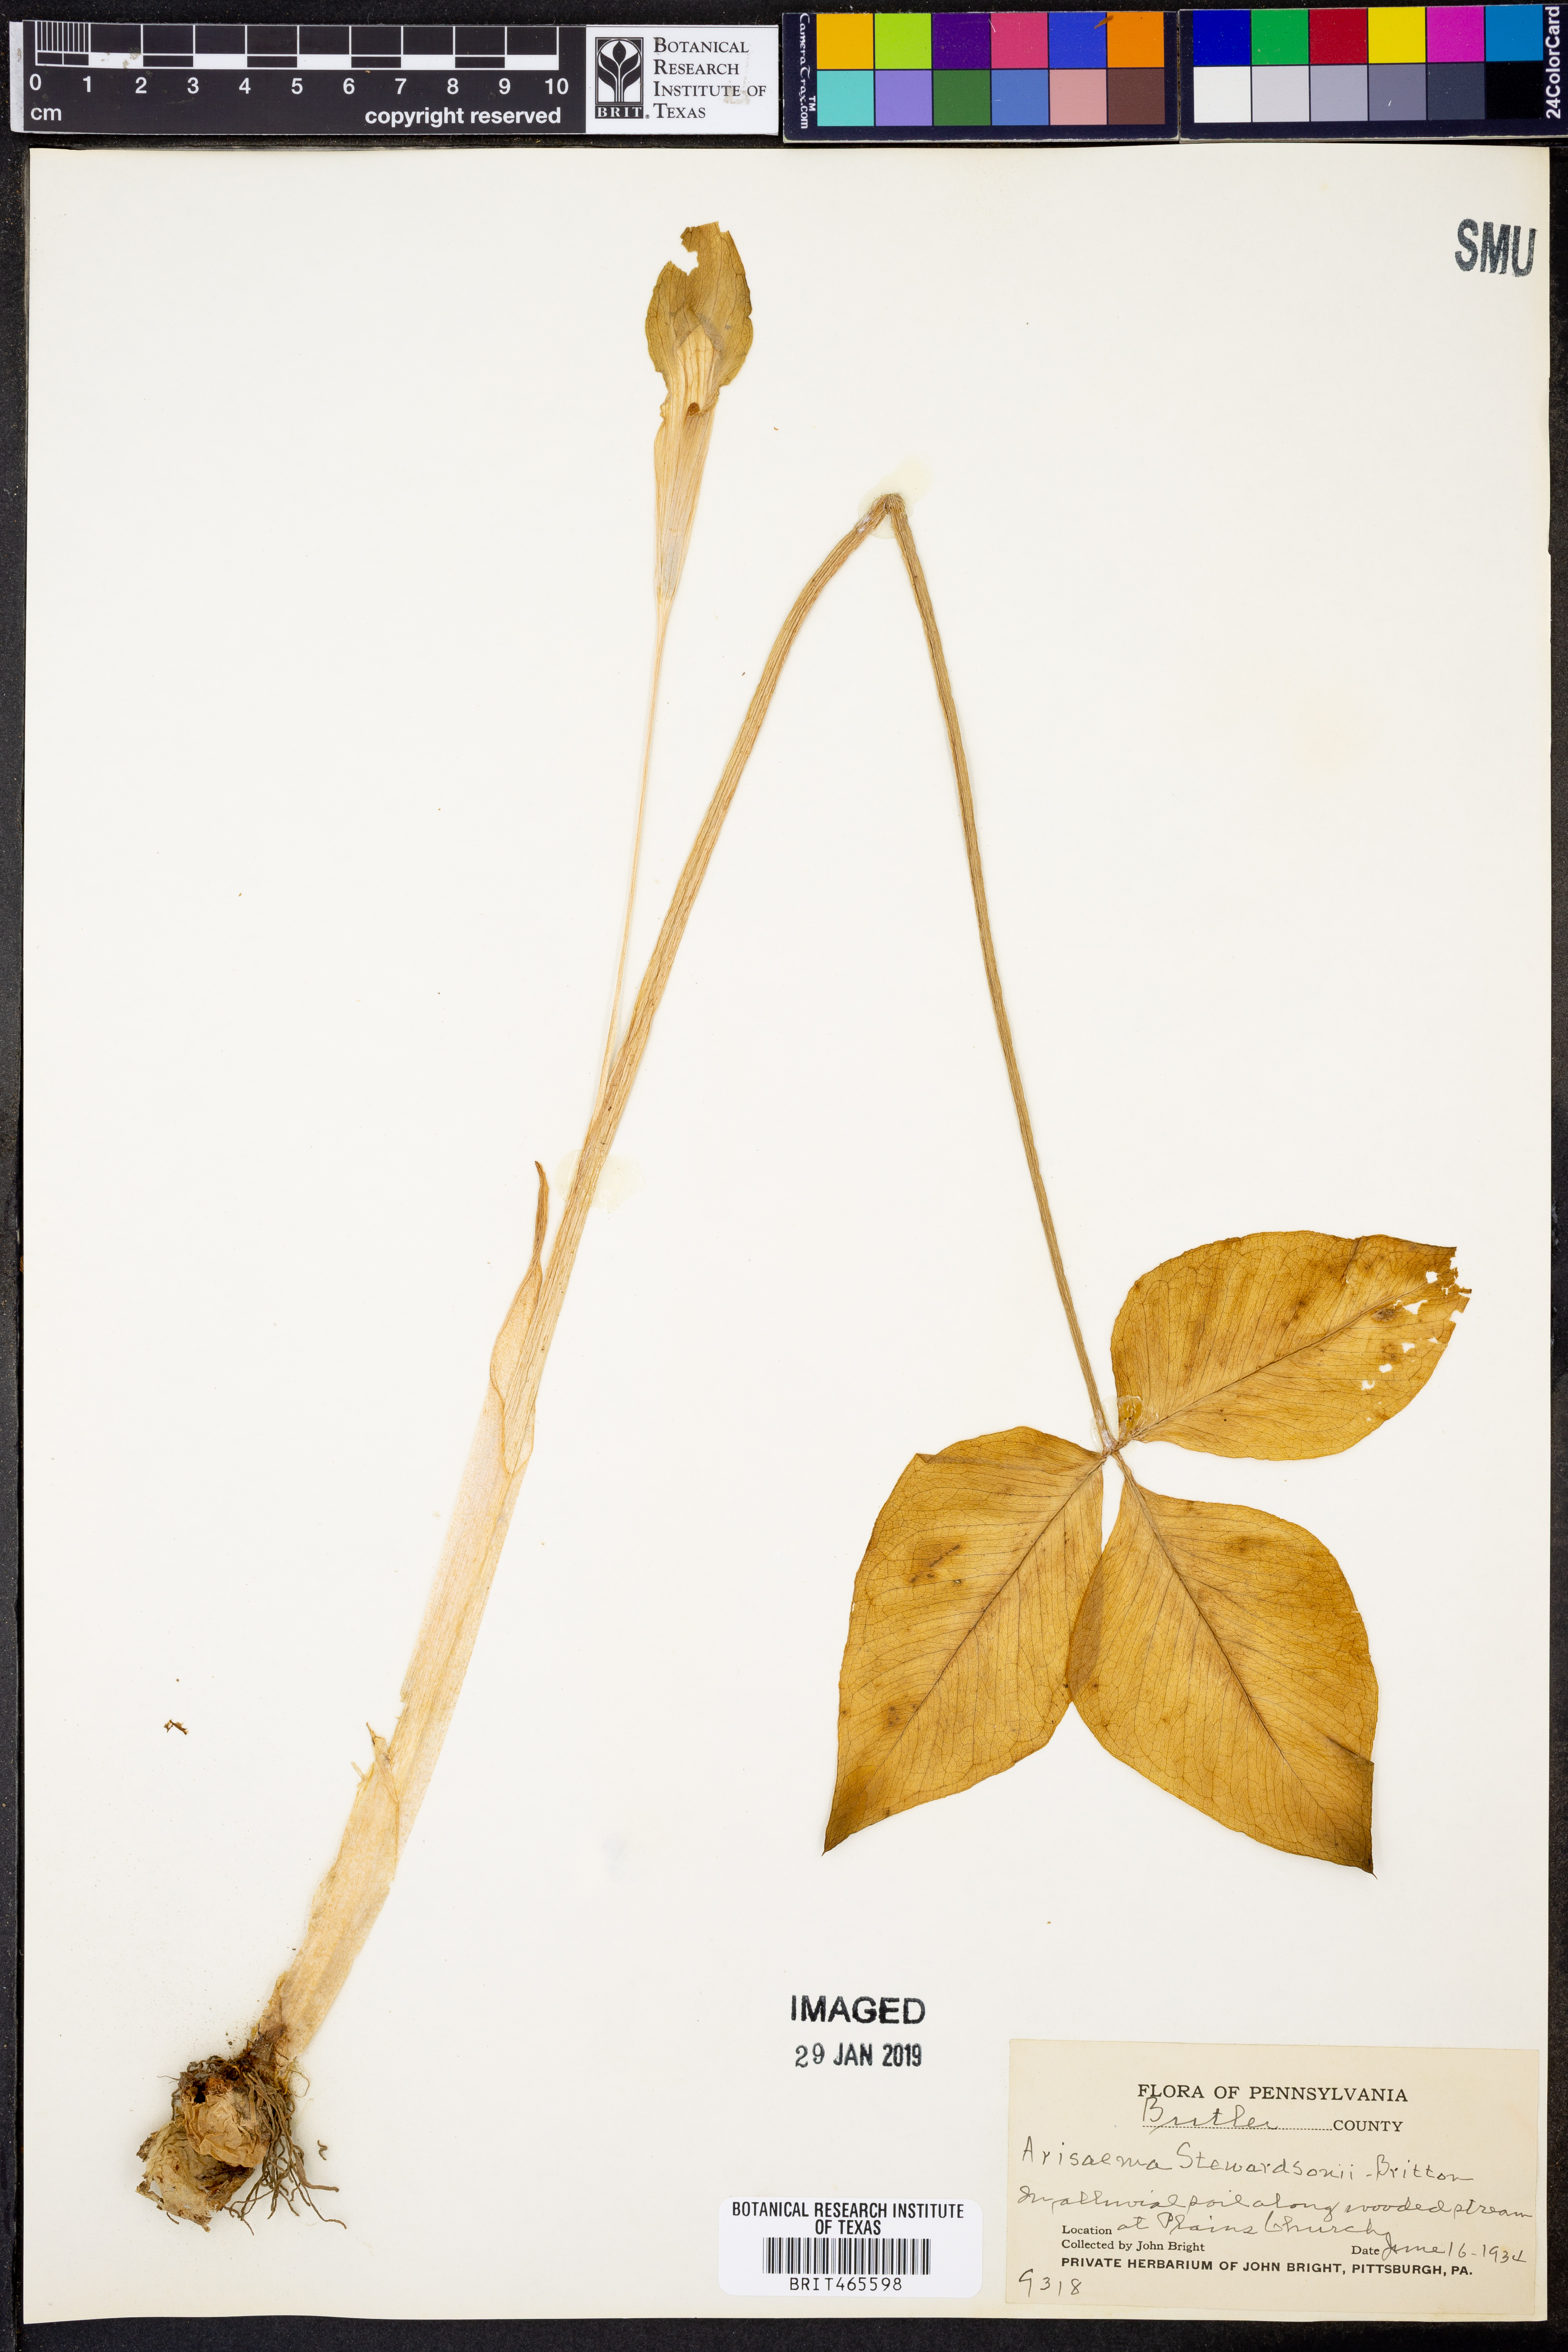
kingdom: Plantae
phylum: Tracheophyta
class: Liliopsida
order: Alismatales
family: Araceae
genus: Arisaema
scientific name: Arisaema stewardsonii
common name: Swamp jack-in-the-pulpit
